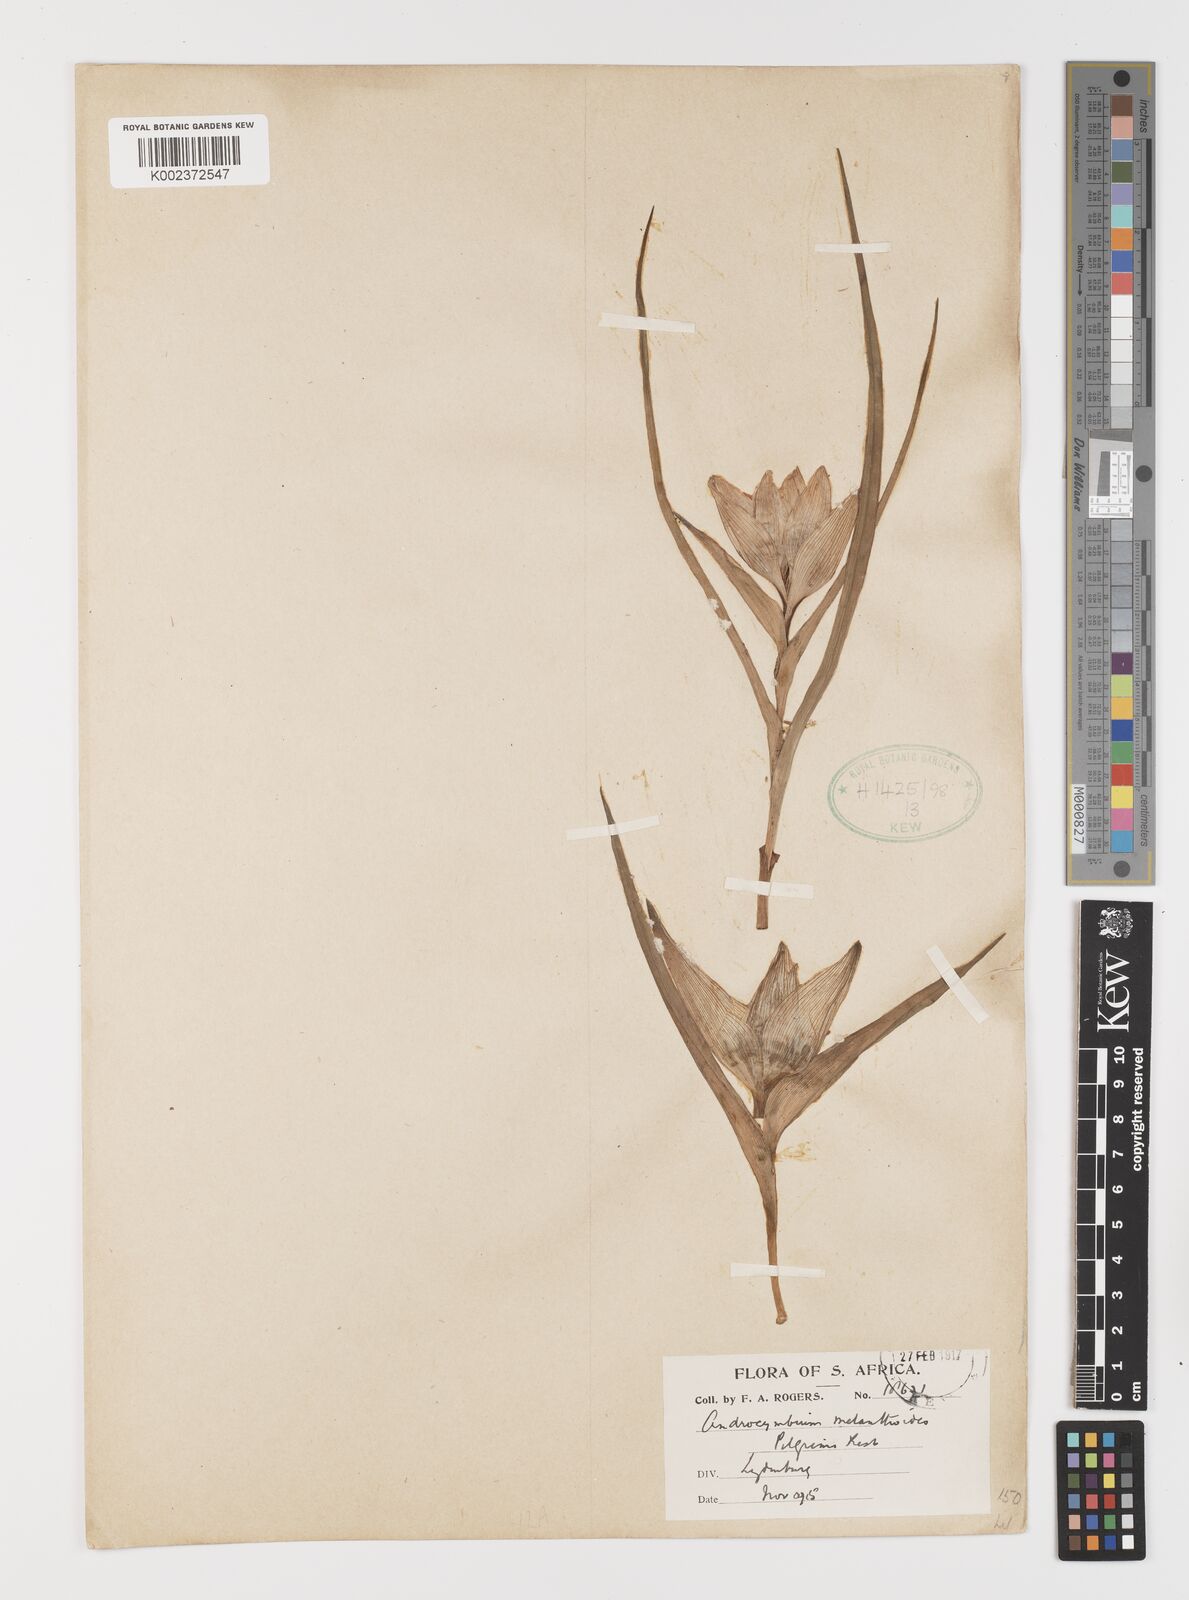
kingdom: Plantae
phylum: Tracheophyta
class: Liliopsida
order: Liliales
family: Colchicaceae
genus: Colchicum
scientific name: Colchicum melanthioides
